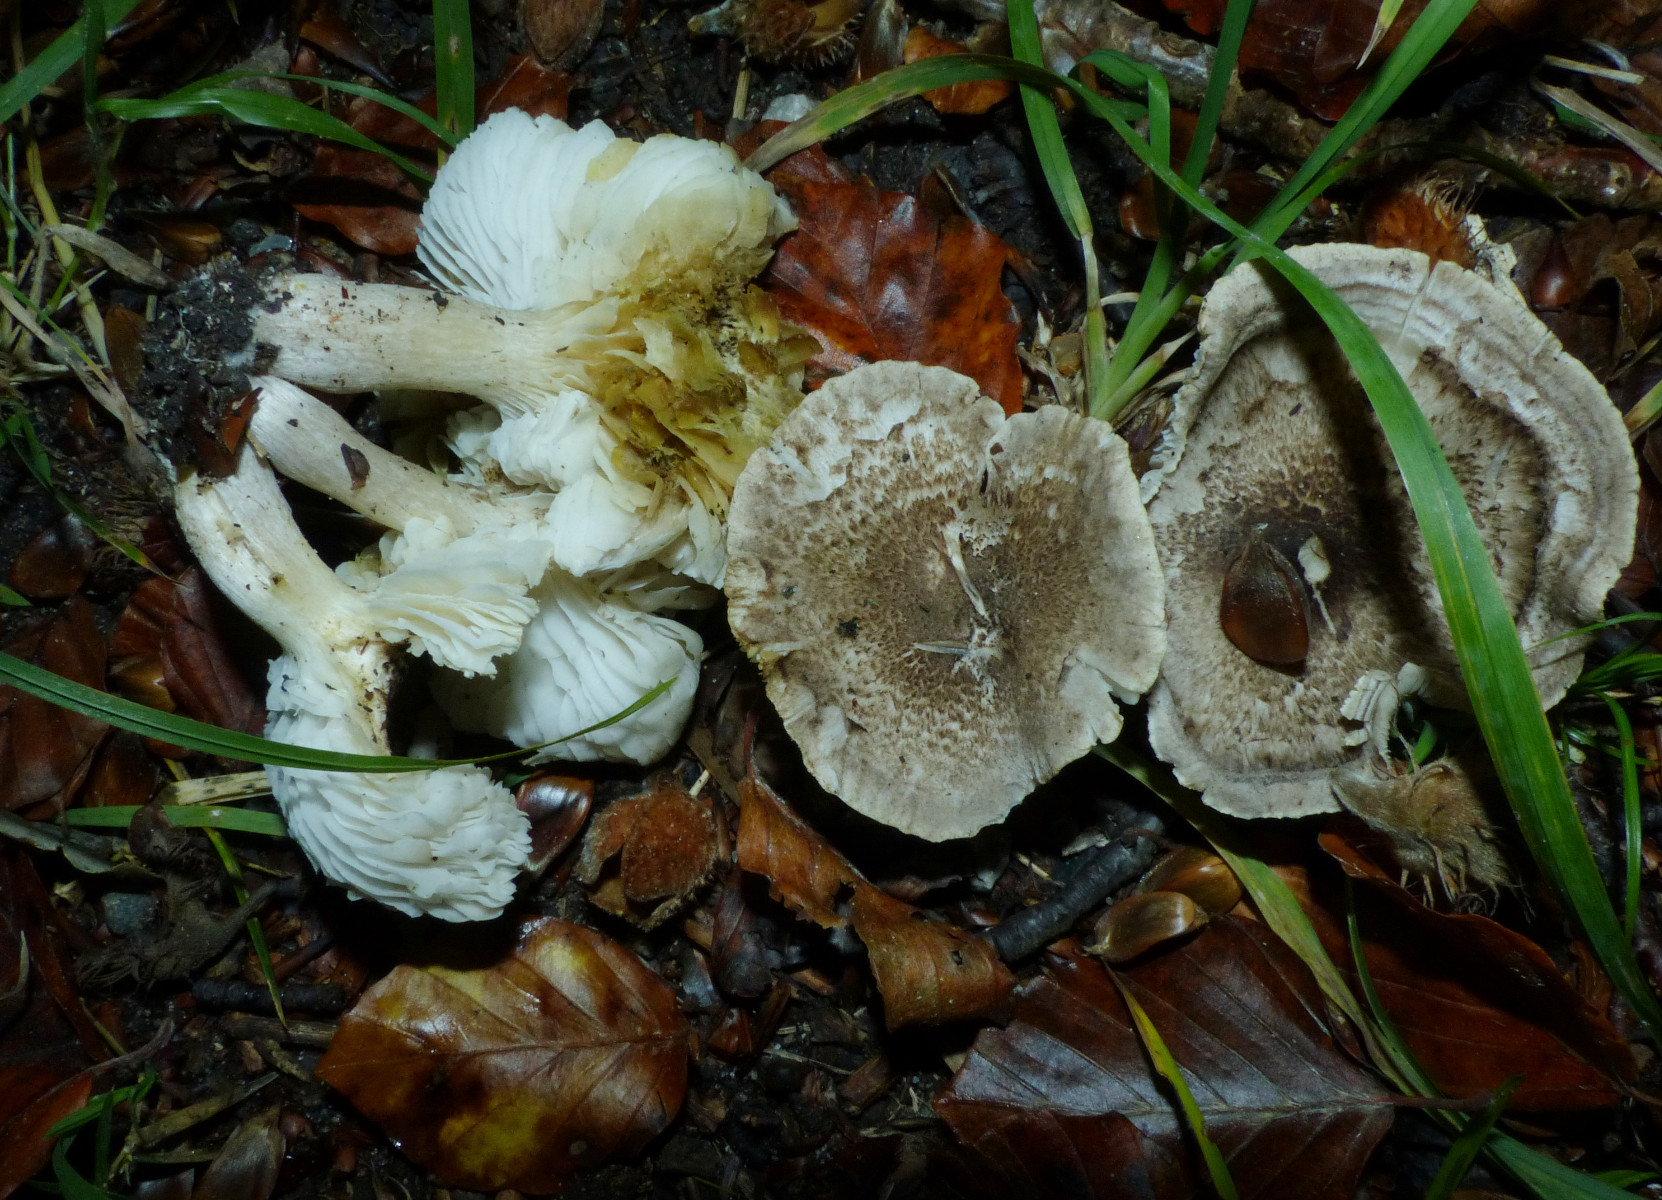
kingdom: Fungi
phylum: Basidiomycota
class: Agaricomycetes
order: Agaricales
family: Tricholomataceae
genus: Tricholoma
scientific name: Tricholoma scalpturatum
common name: gulplettet ridderhat
